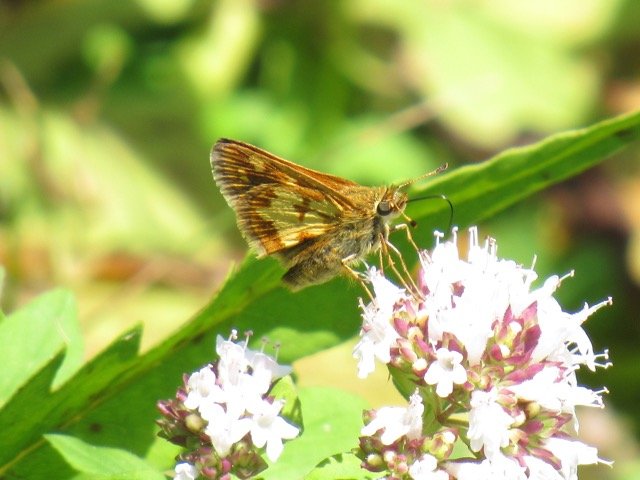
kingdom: Animalia
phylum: Arthropoda
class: Insecta
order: Lepidoptera
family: Hesperiidae
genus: Polites
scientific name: Polites coras
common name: Peck's Skipper
